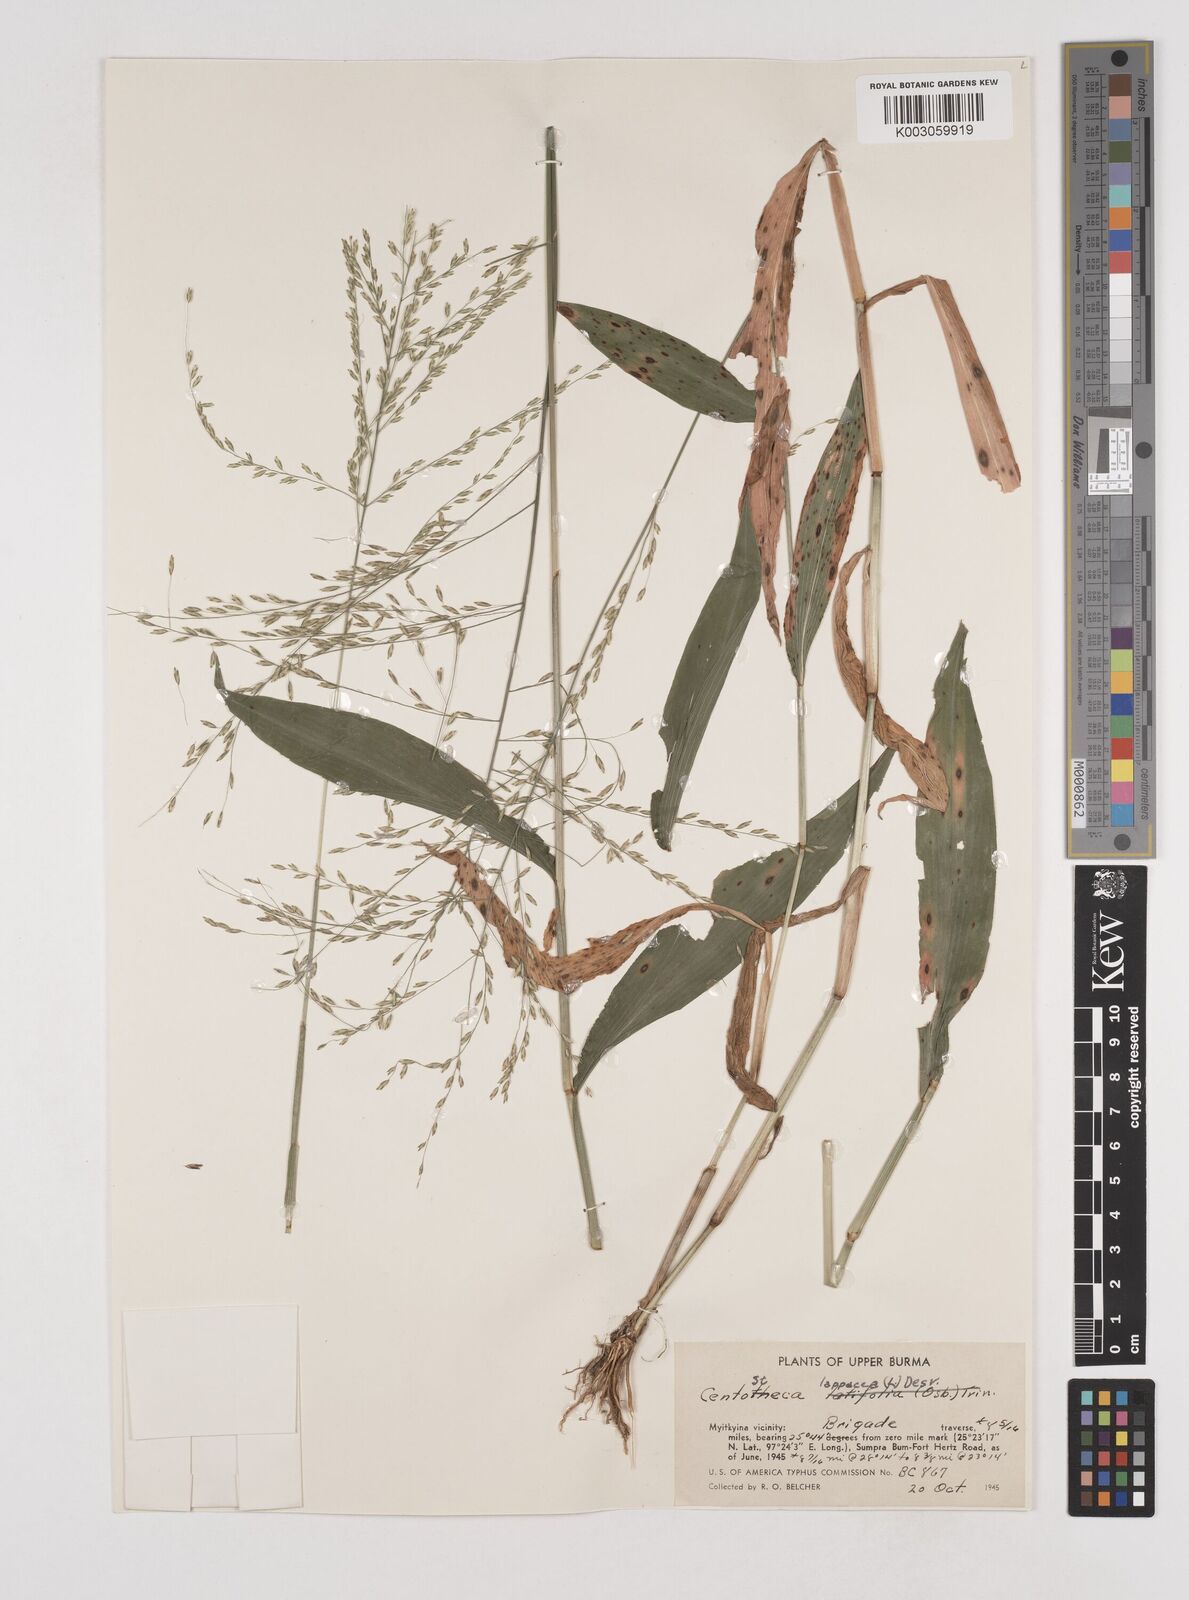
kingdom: Plantae
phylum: Tracheophyta
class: Liliopsida
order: Poales
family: Poaceae
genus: Centotheca
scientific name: Centotheca lappacea
